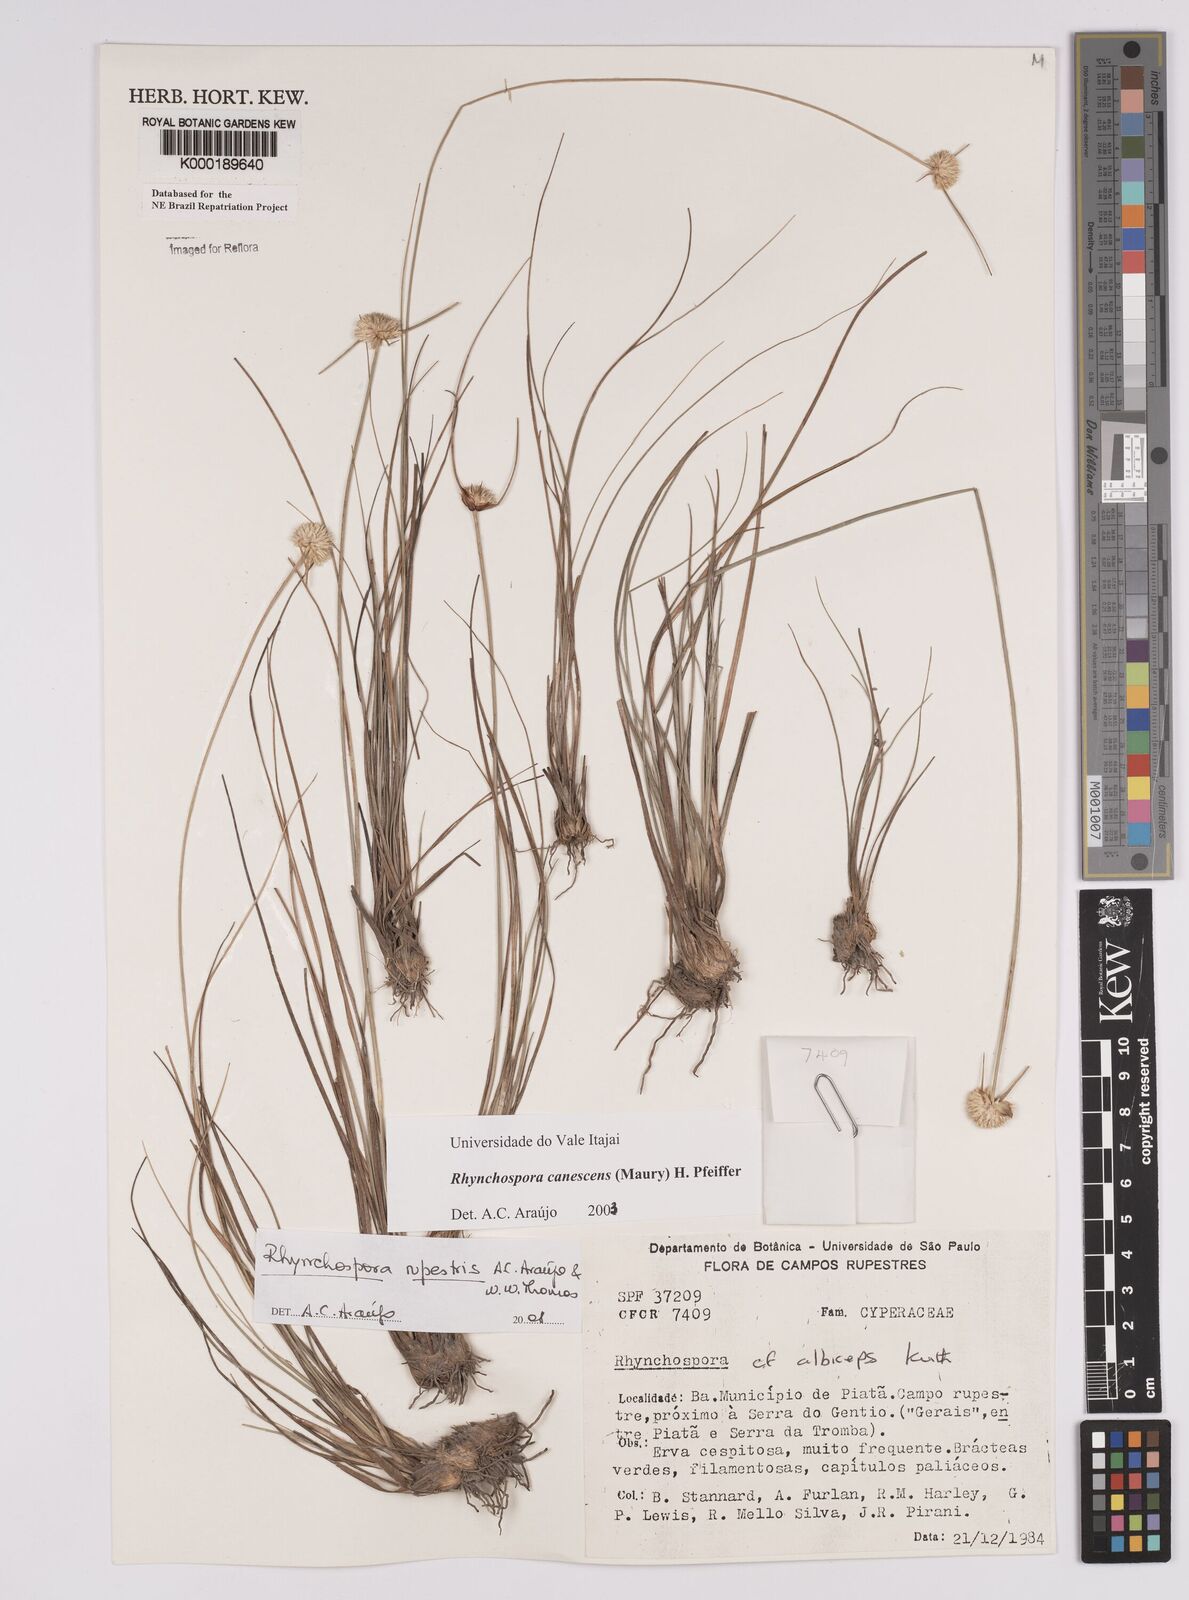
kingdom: Plantae
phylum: Tracheophyta
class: Liliopsida
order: Poales
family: Cyperaceae
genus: Rhynchospora
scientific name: Rhynchospora albiceps
